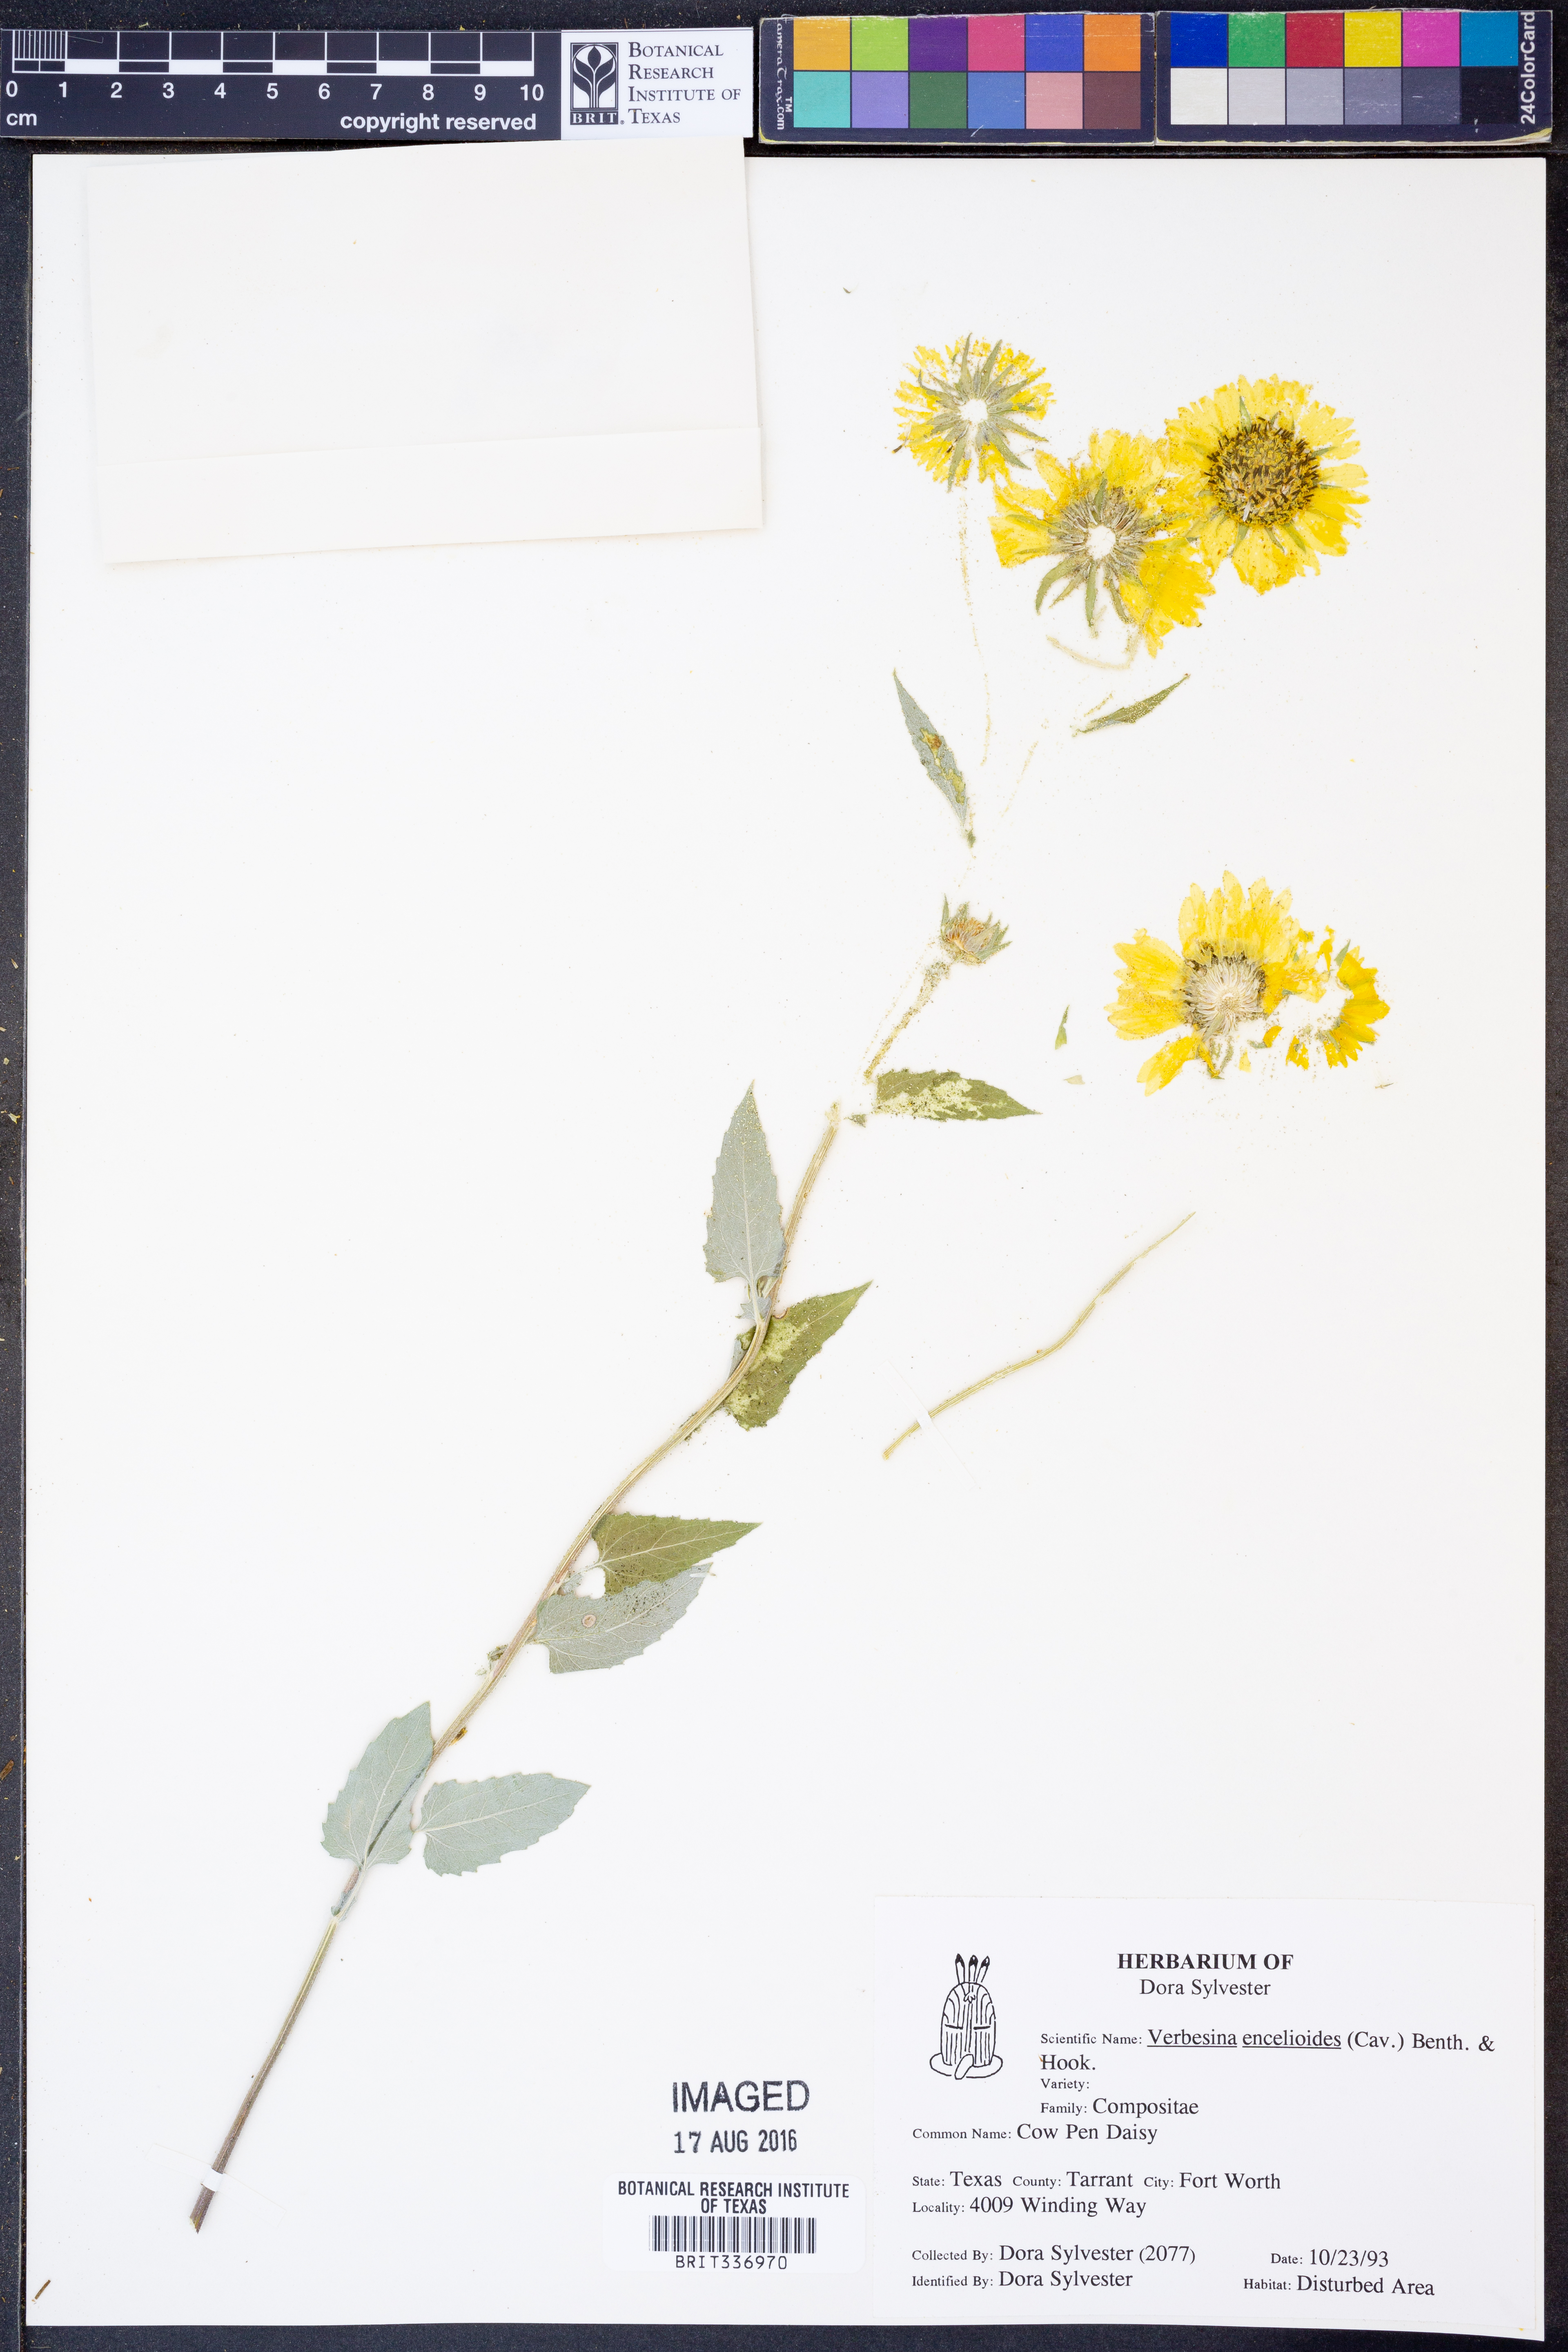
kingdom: Plantae
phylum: Tracheophyta
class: Magnoliopsida
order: Asterales
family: Asteraceae
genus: Verbesina
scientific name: Verbesina encelioides
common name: Golden crownbeard
